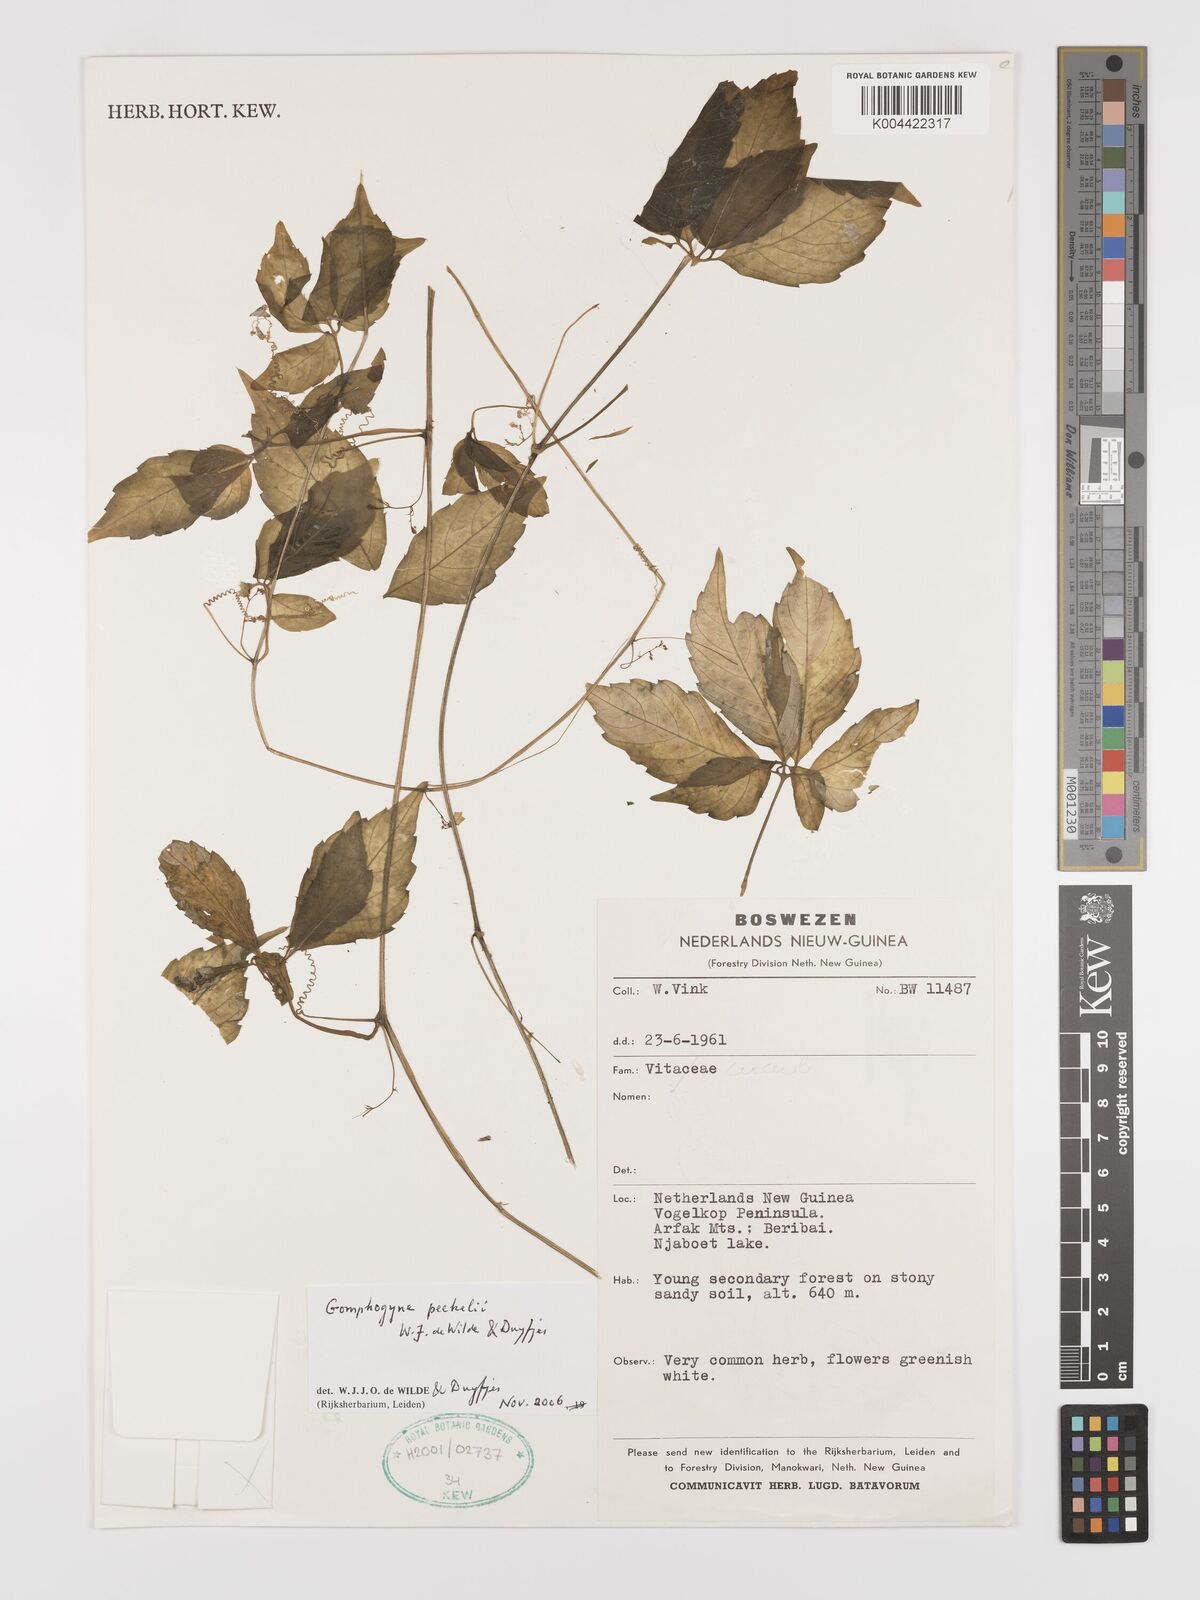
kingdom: Plantae
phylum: Tracheophyta
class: Magnoliopsida
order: Cucurbitales
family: Cucurbitaceae
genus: Hemsleya
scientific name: Hemsleya peekelii
